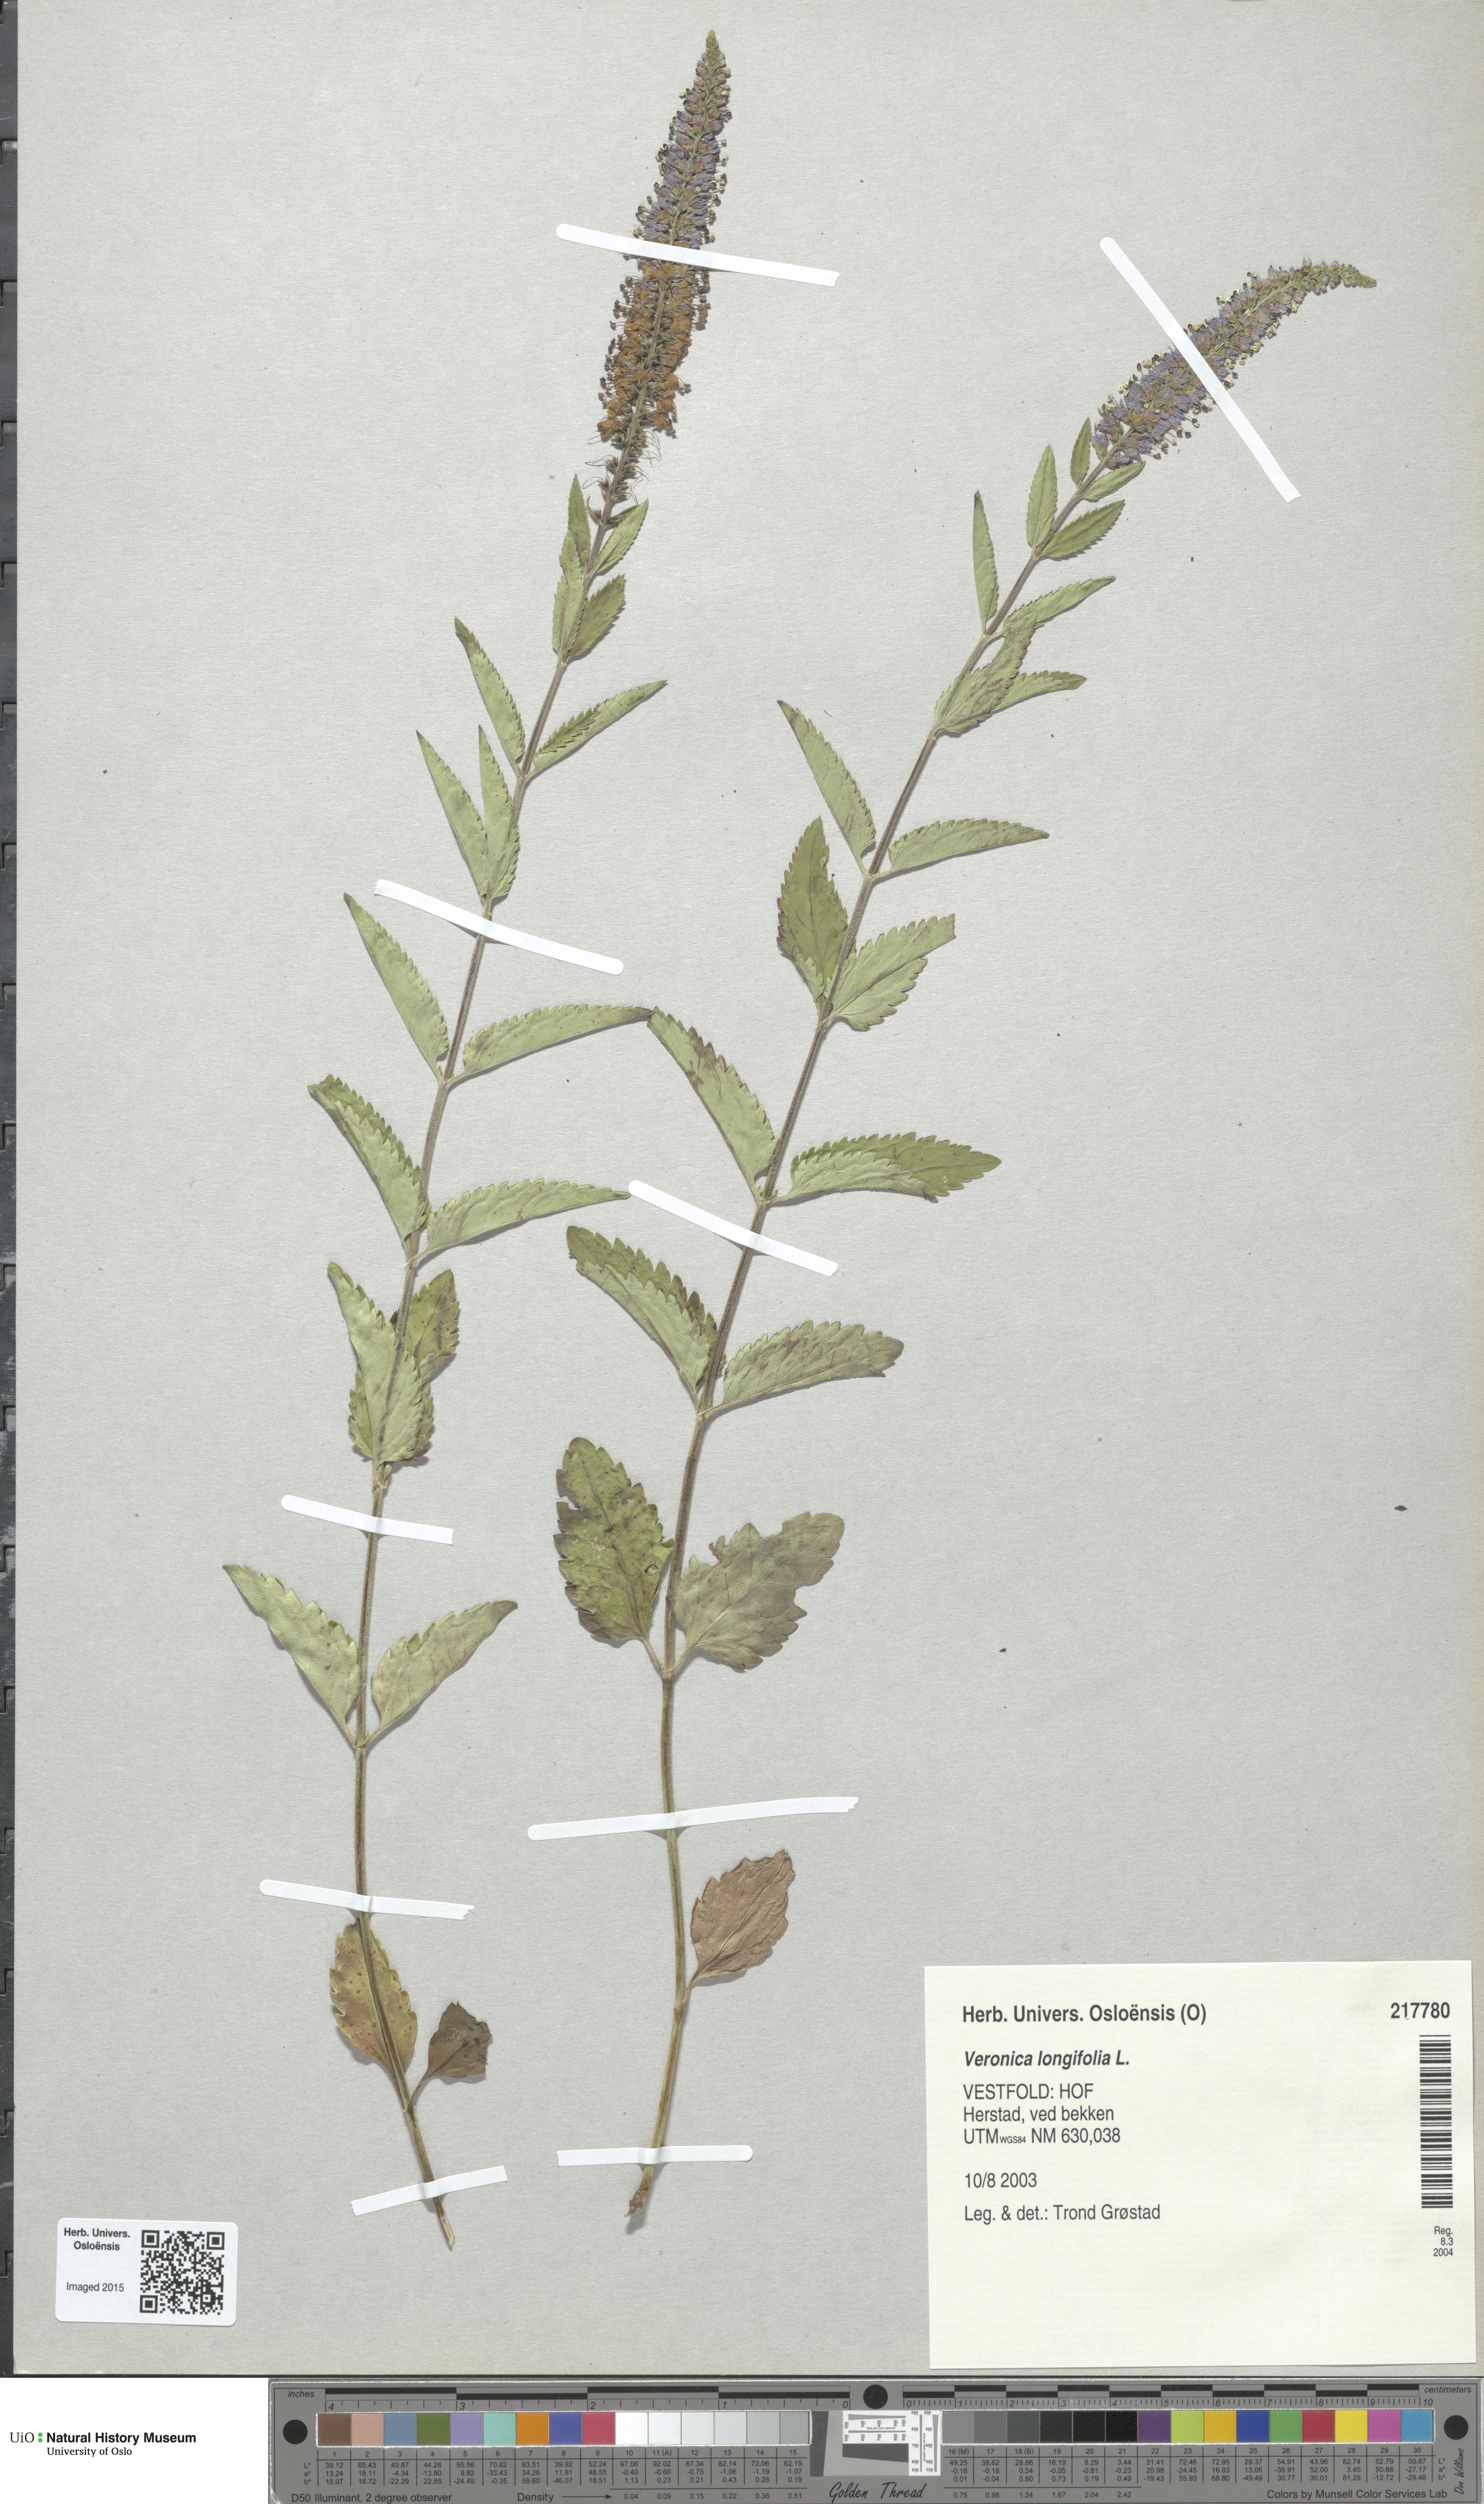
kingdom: Plantae
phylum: Tracheophyta
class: Magnoliopsida
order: Lamiales
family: Plantaginaceae
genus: Veronica
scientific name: Veronica longifolia
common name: Garden speedwell
